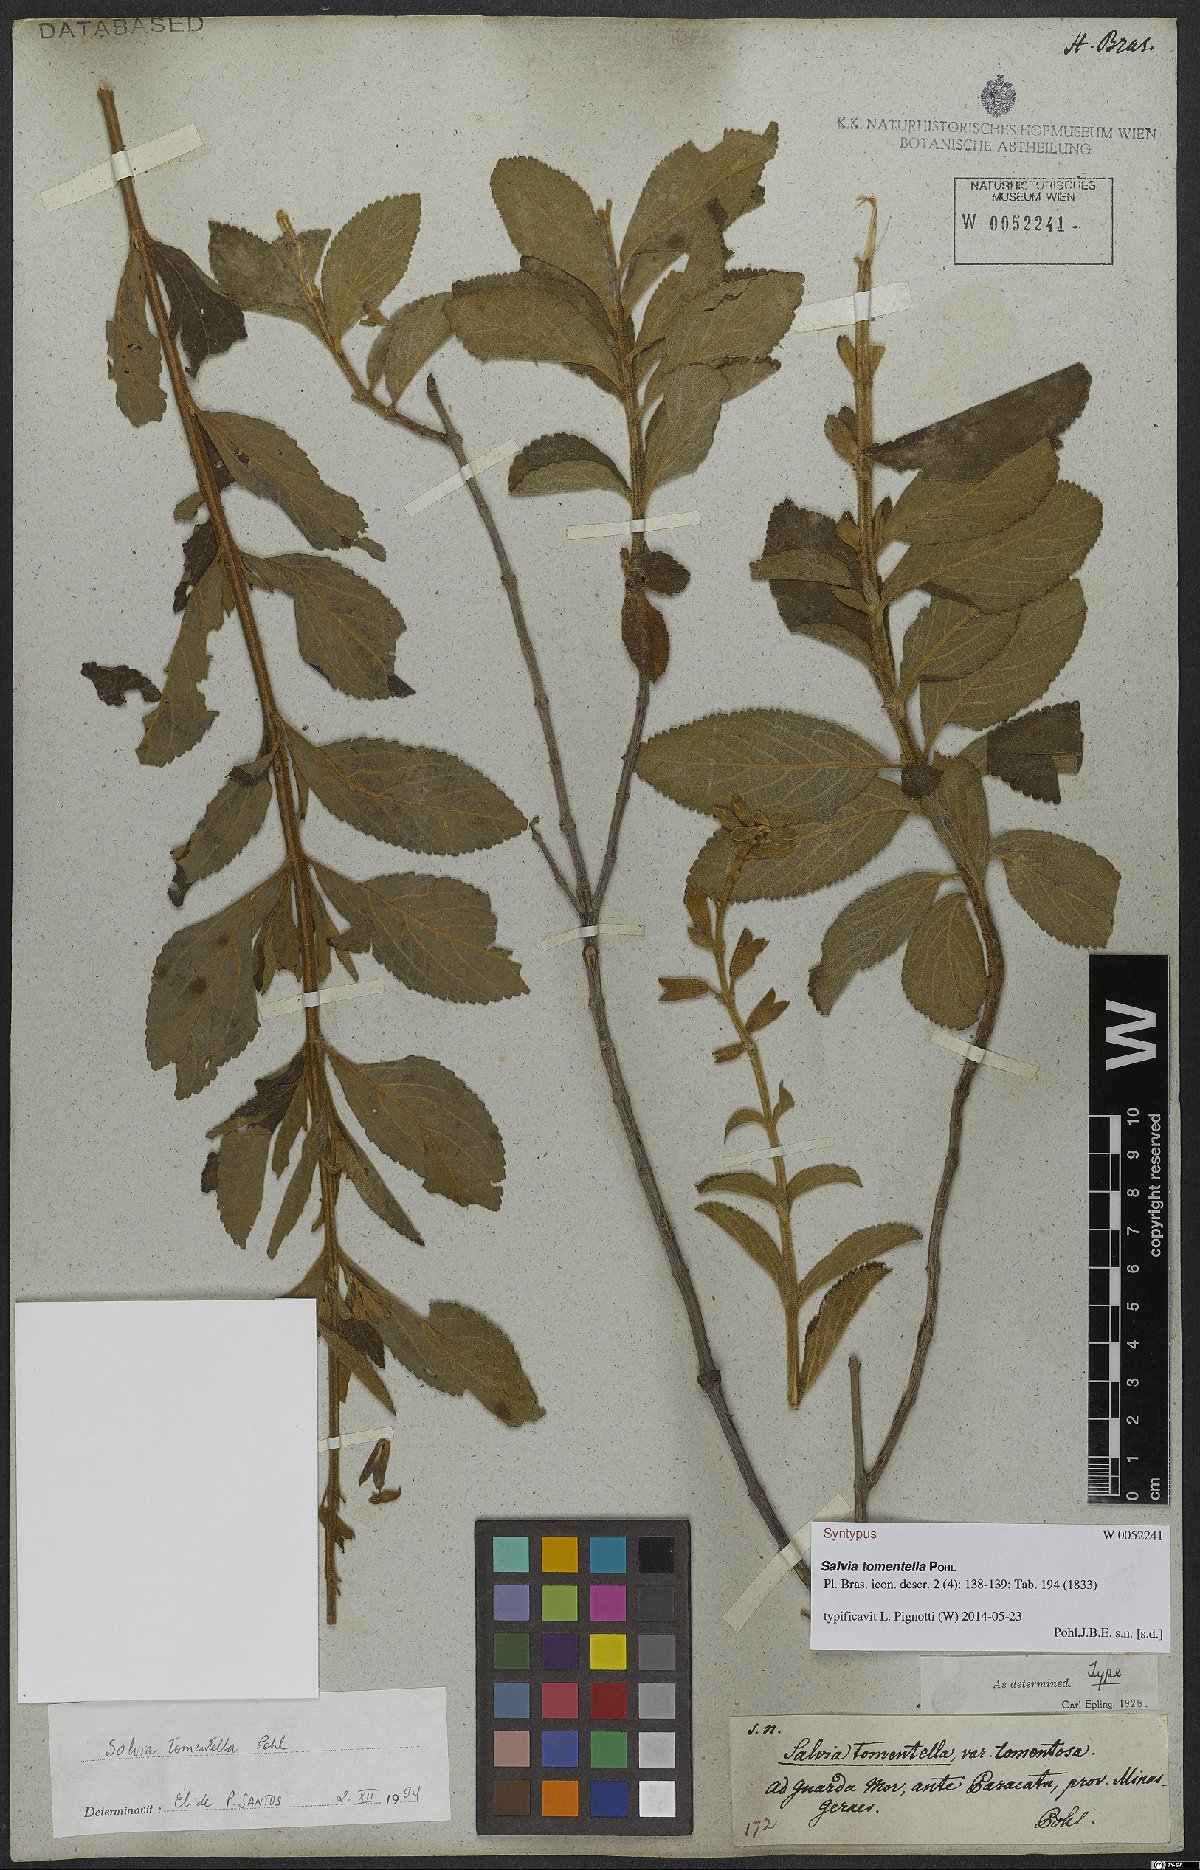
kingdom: Plantae
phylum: Tracheophyta
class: Magnoliopsida
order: Lamiales
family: Lamiaceae
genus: Salvia
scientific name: Salvia tomentella
